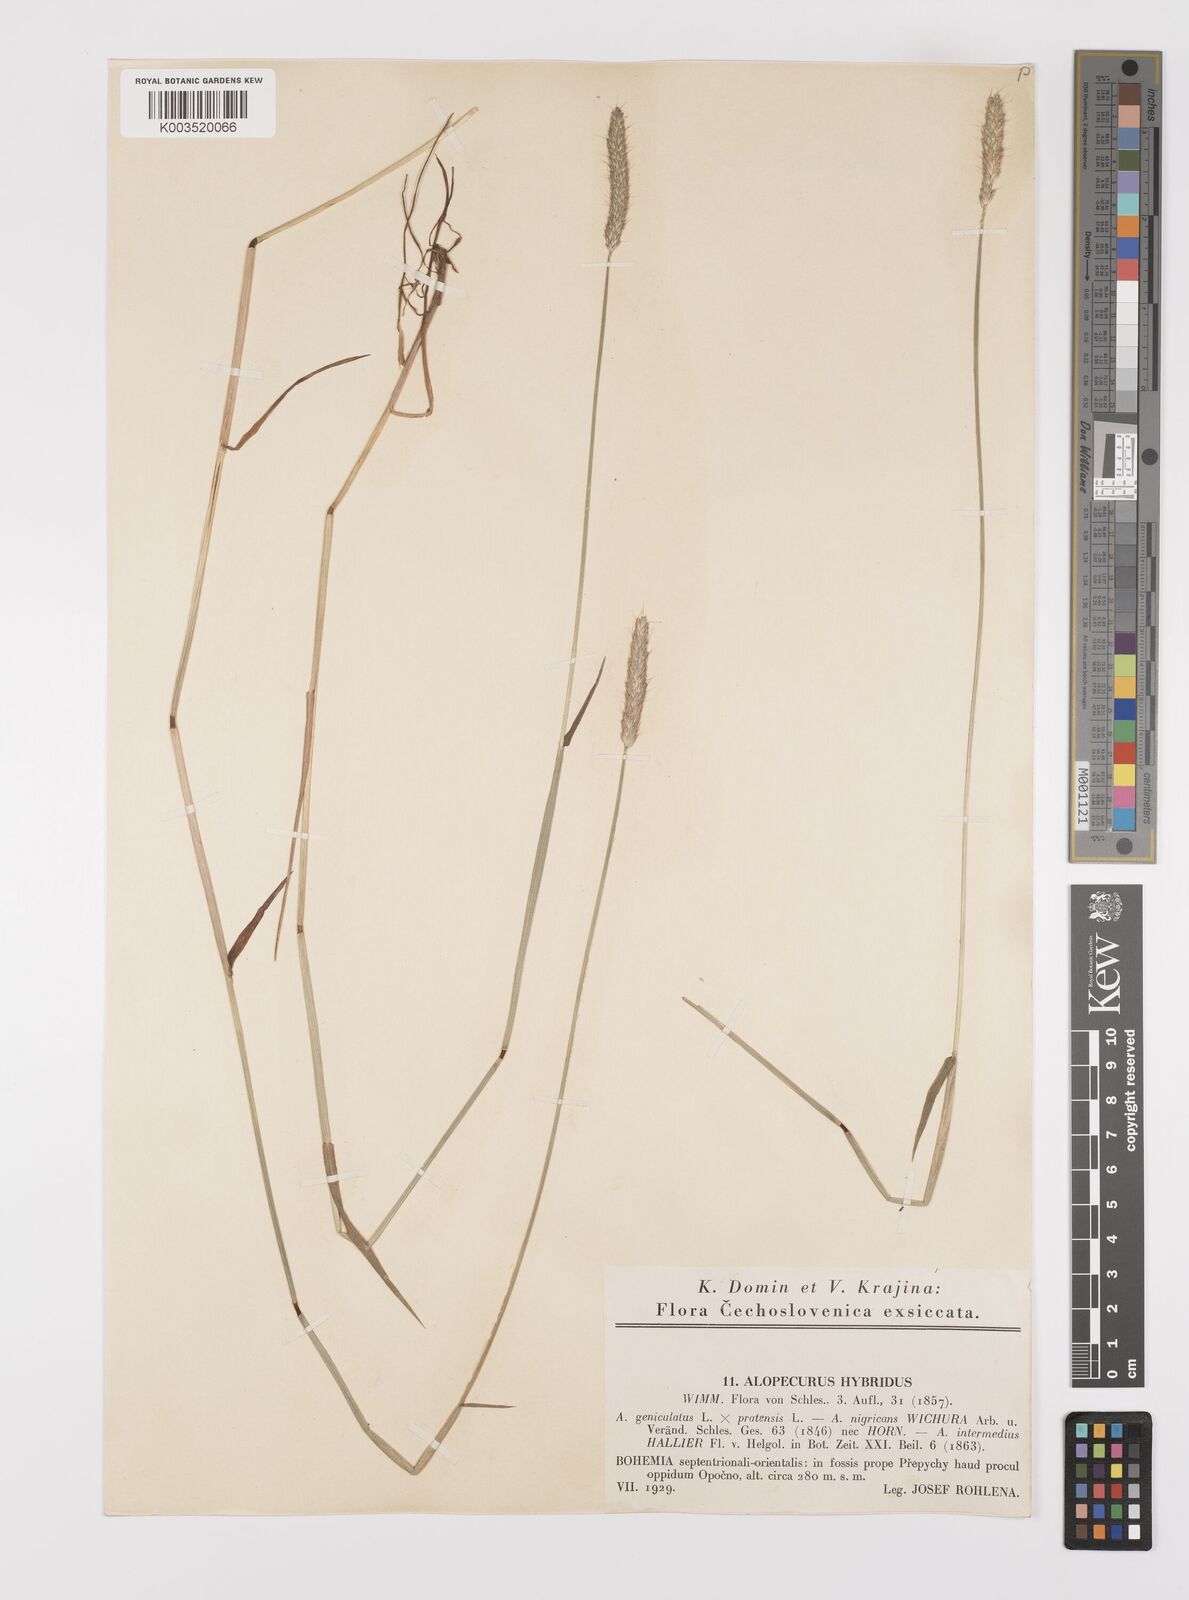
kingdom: Plantae
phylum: Tracheophyta
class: Liliopsida
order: Poales
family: Poaceae
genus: Alopecurus
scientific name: Alopecurus brachystylus
